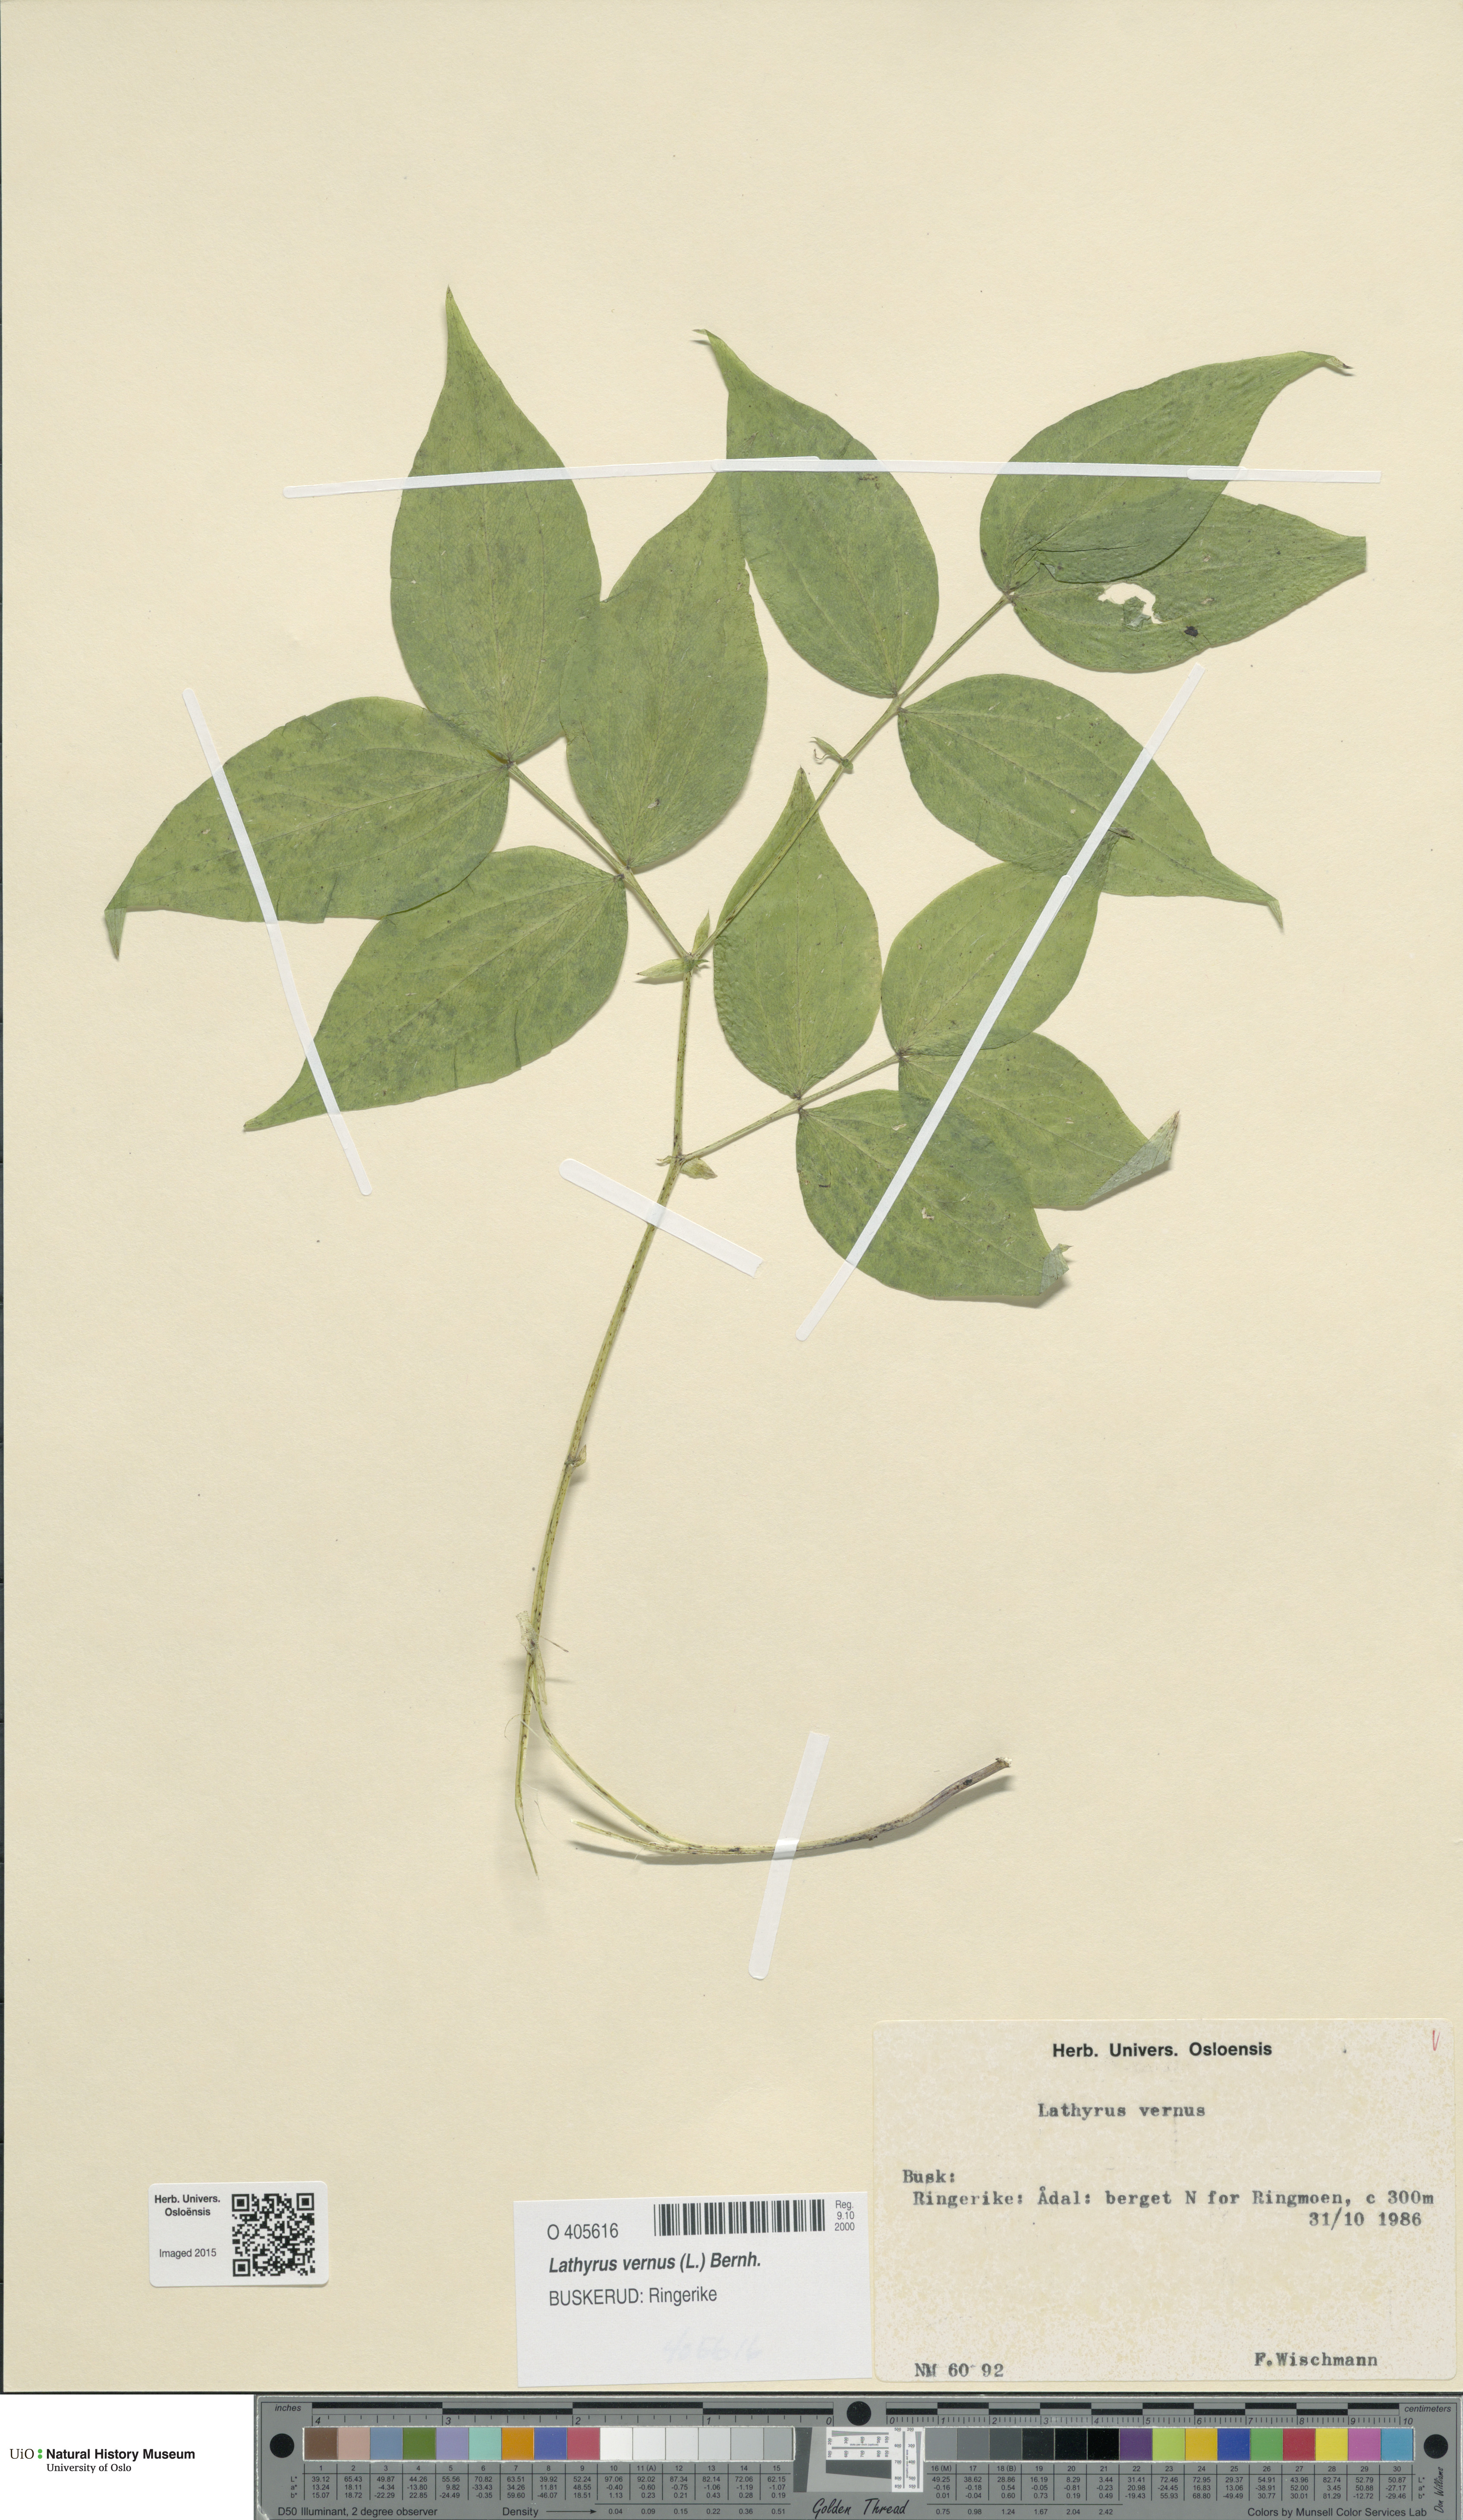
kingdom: Plantae
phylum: Tracheophyta
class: Magnoliopsida
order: Fabales
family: Fabaceae
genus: Lathyrus
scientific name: Lathyrus vernus
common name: Spring pea
